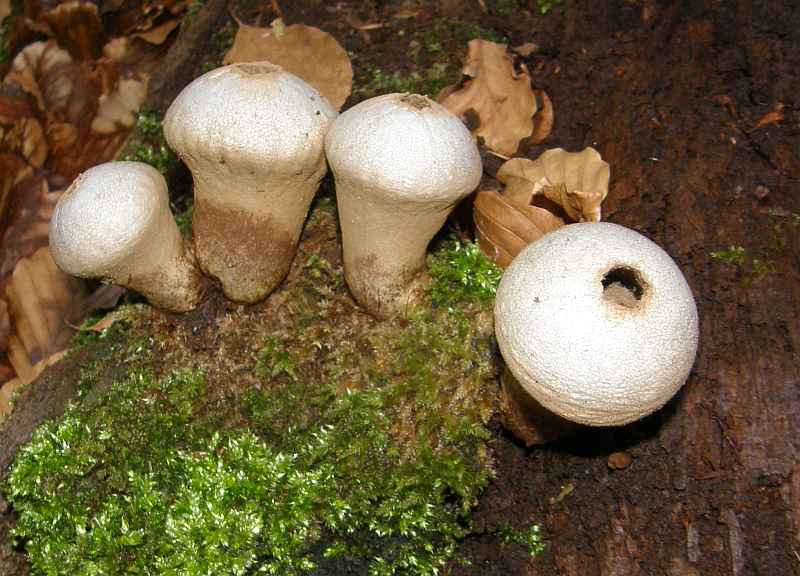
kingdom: Fungi
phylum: Basidiomycota
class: Agaricomycetes
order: Agaricales
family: Lycoperdaceae
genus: Lycoperdon
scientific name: Lycoperdon perlatum
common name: krystal-støvbold
